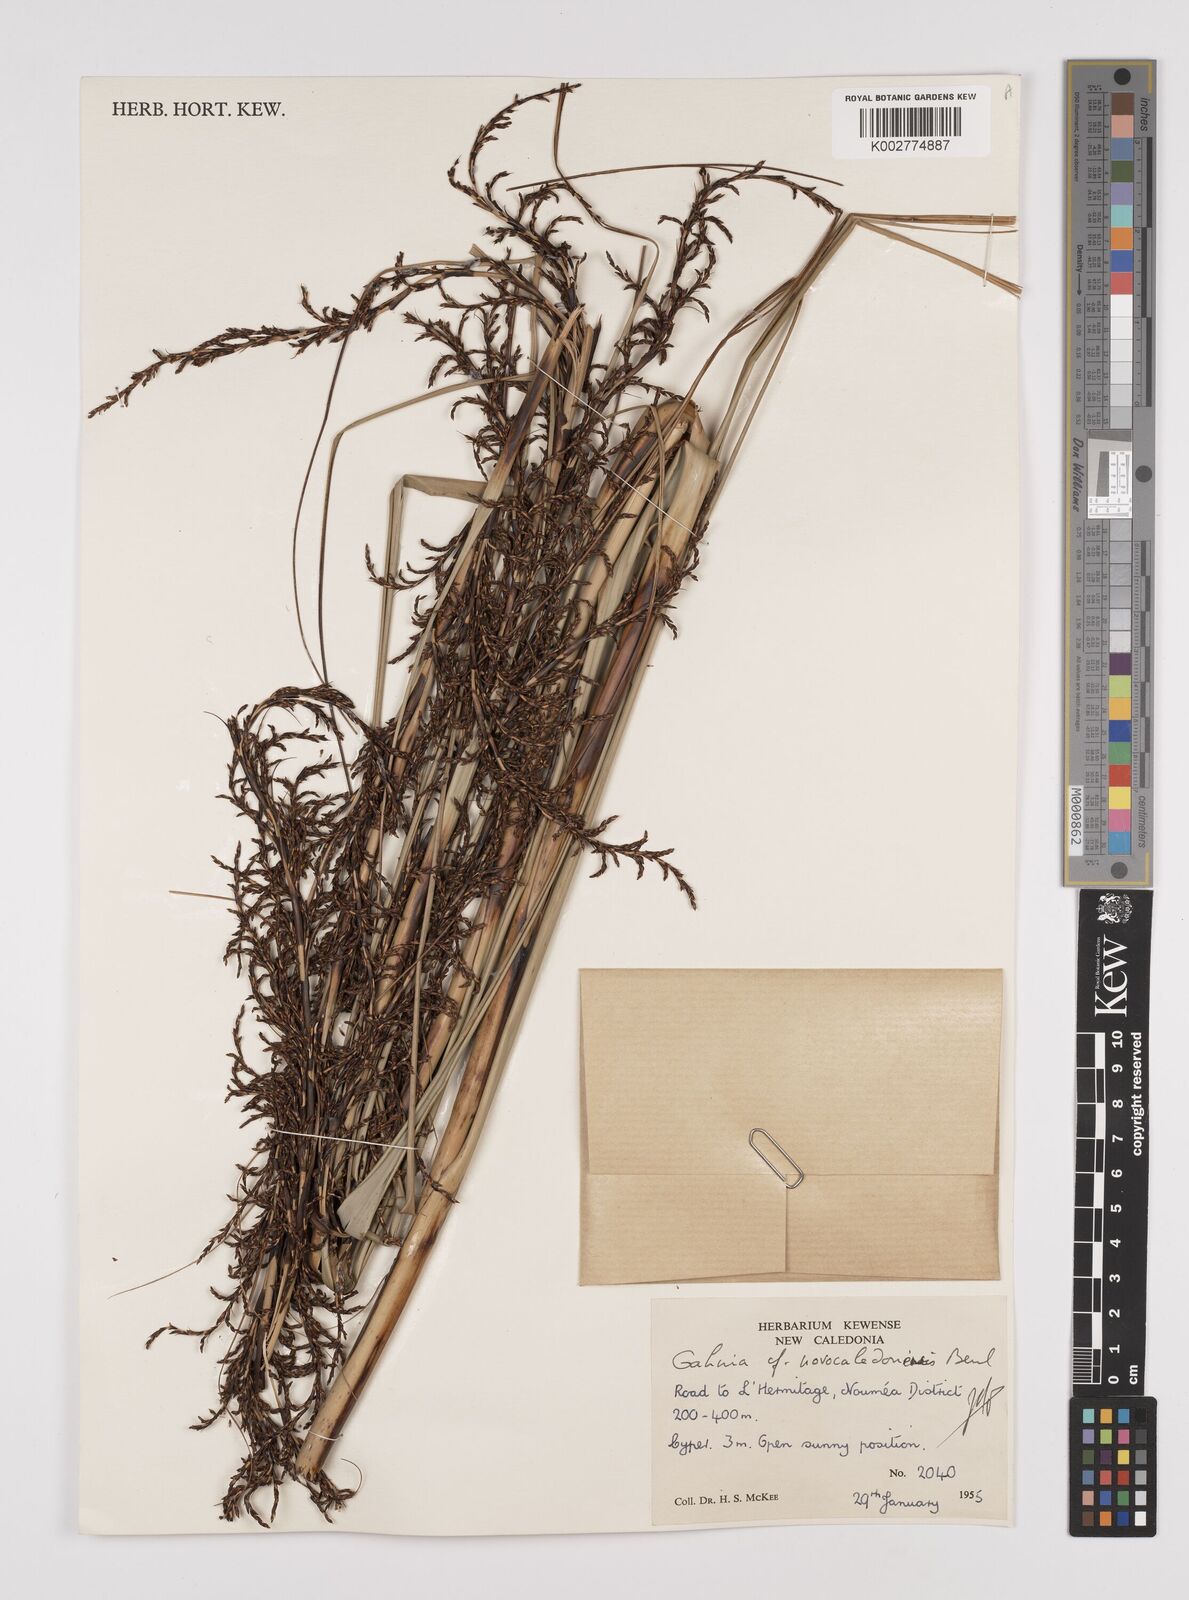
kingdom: Plantae
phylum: Tracheophyta
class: Liliopsida
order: Poales
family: Cyperaceae
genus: Gahnia
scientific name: Gahnia novocaledonensis
